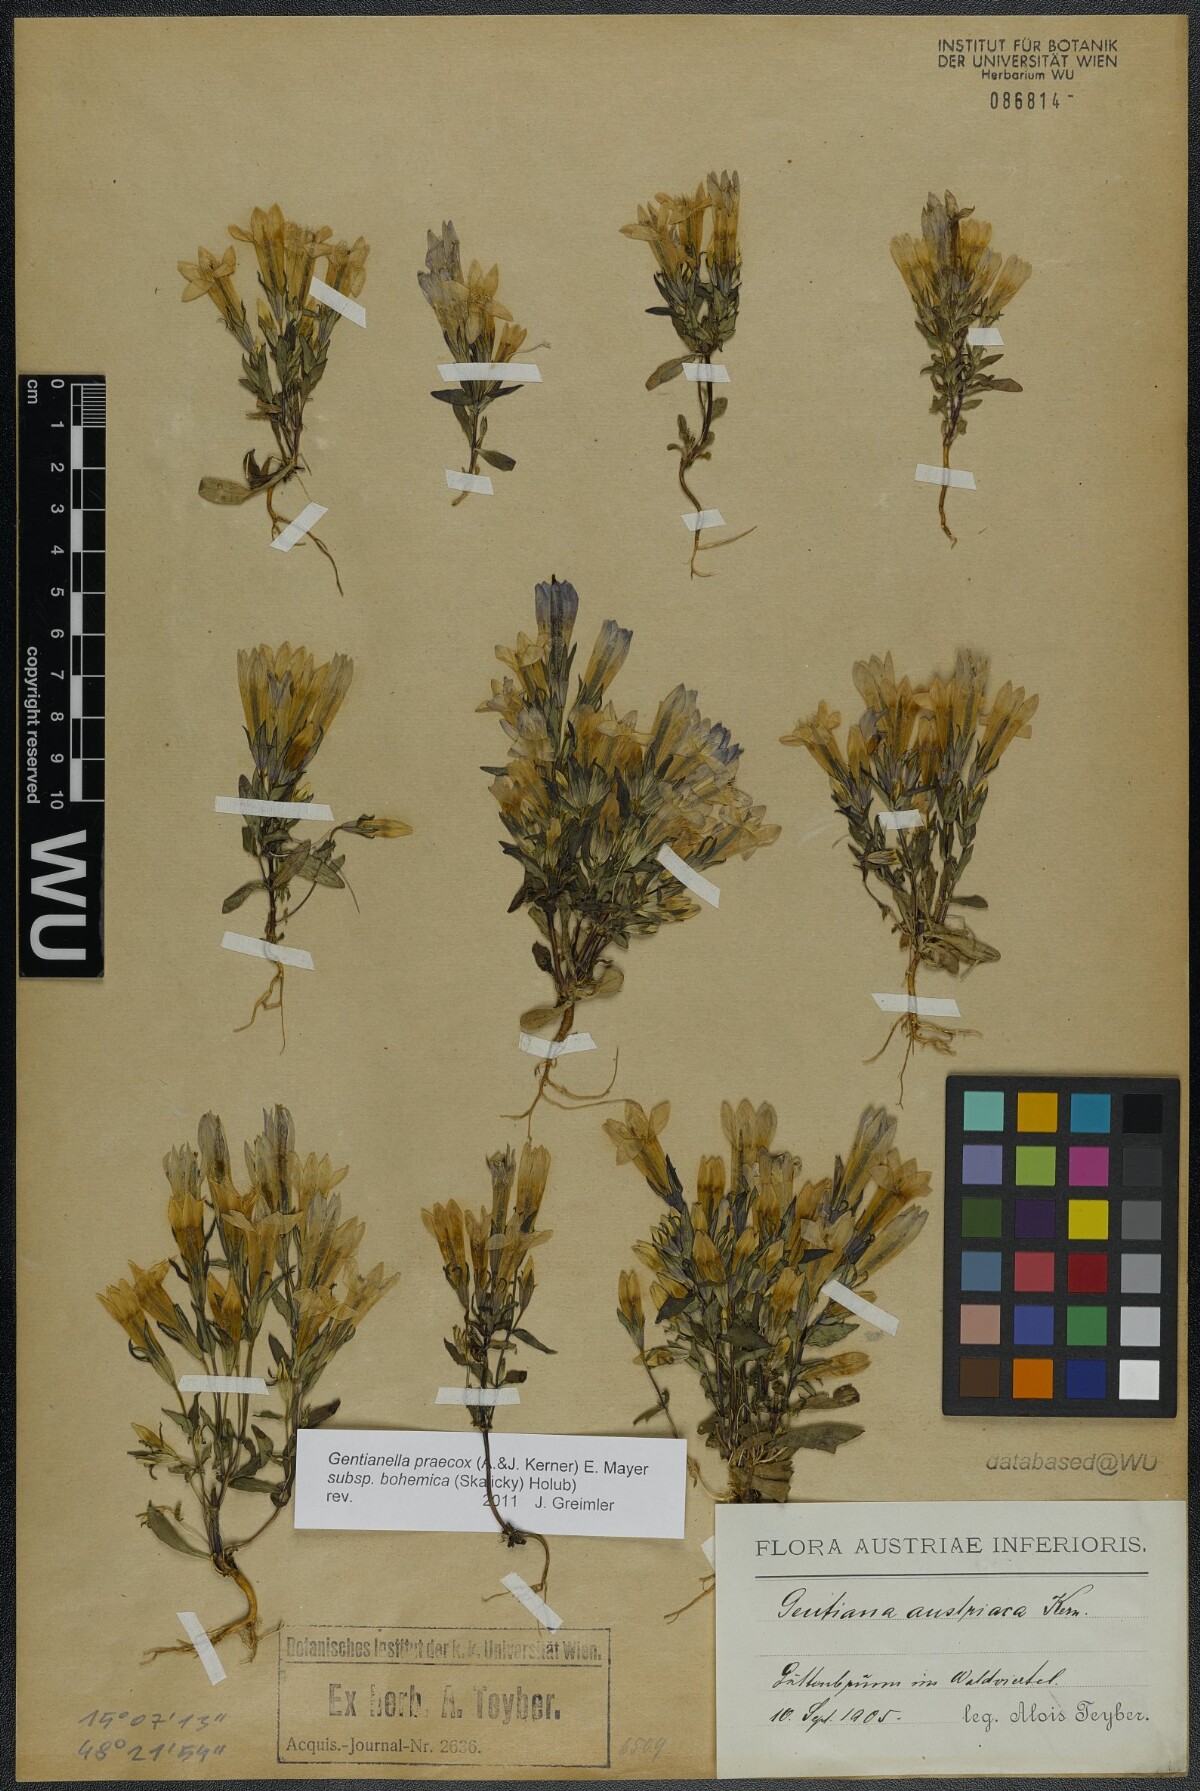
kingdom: Plantae
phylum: Tracheophyta
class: Magnoliopsida
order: Gentianales
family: Gentianaceae
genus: Gentianella
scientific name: Gentianella praecox
